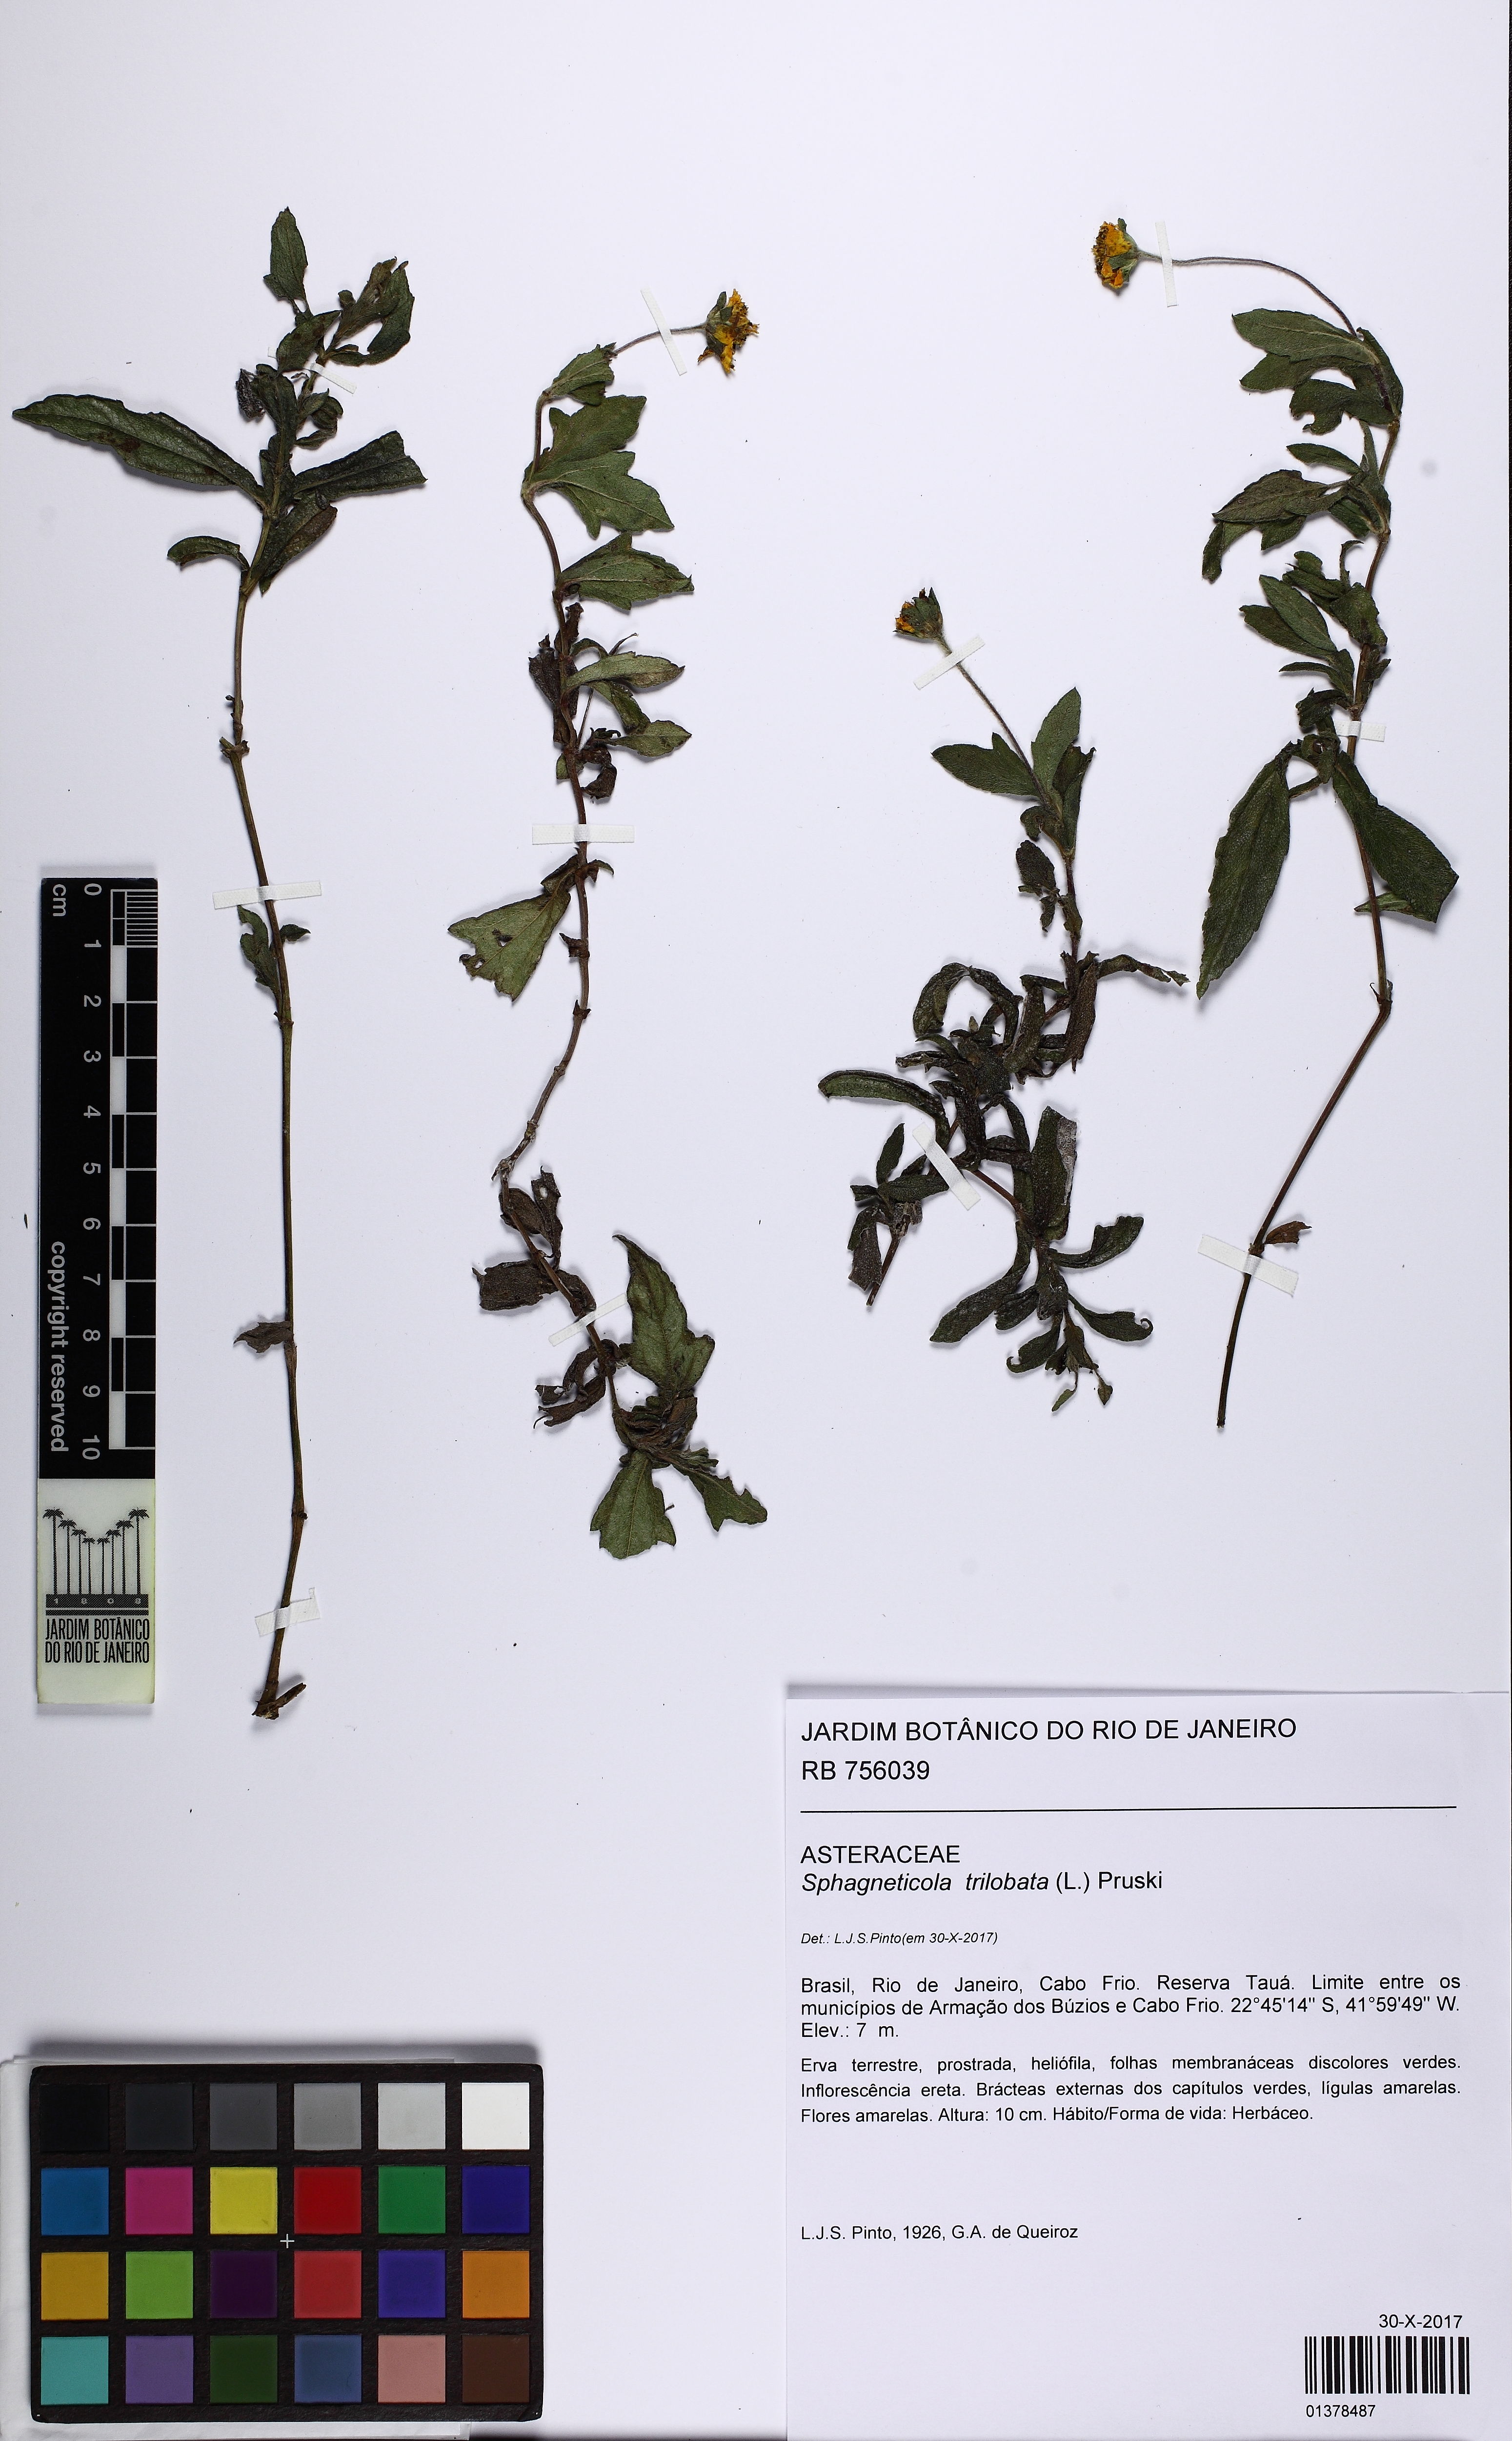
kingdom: Plantae
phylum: Tracheophyta
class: Magnoliopsida
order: Asterales
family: Asteraceae
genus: Sphagneticola
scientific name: Sphagneticola trilobata
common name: Bay biscayne creeping-oxeye
